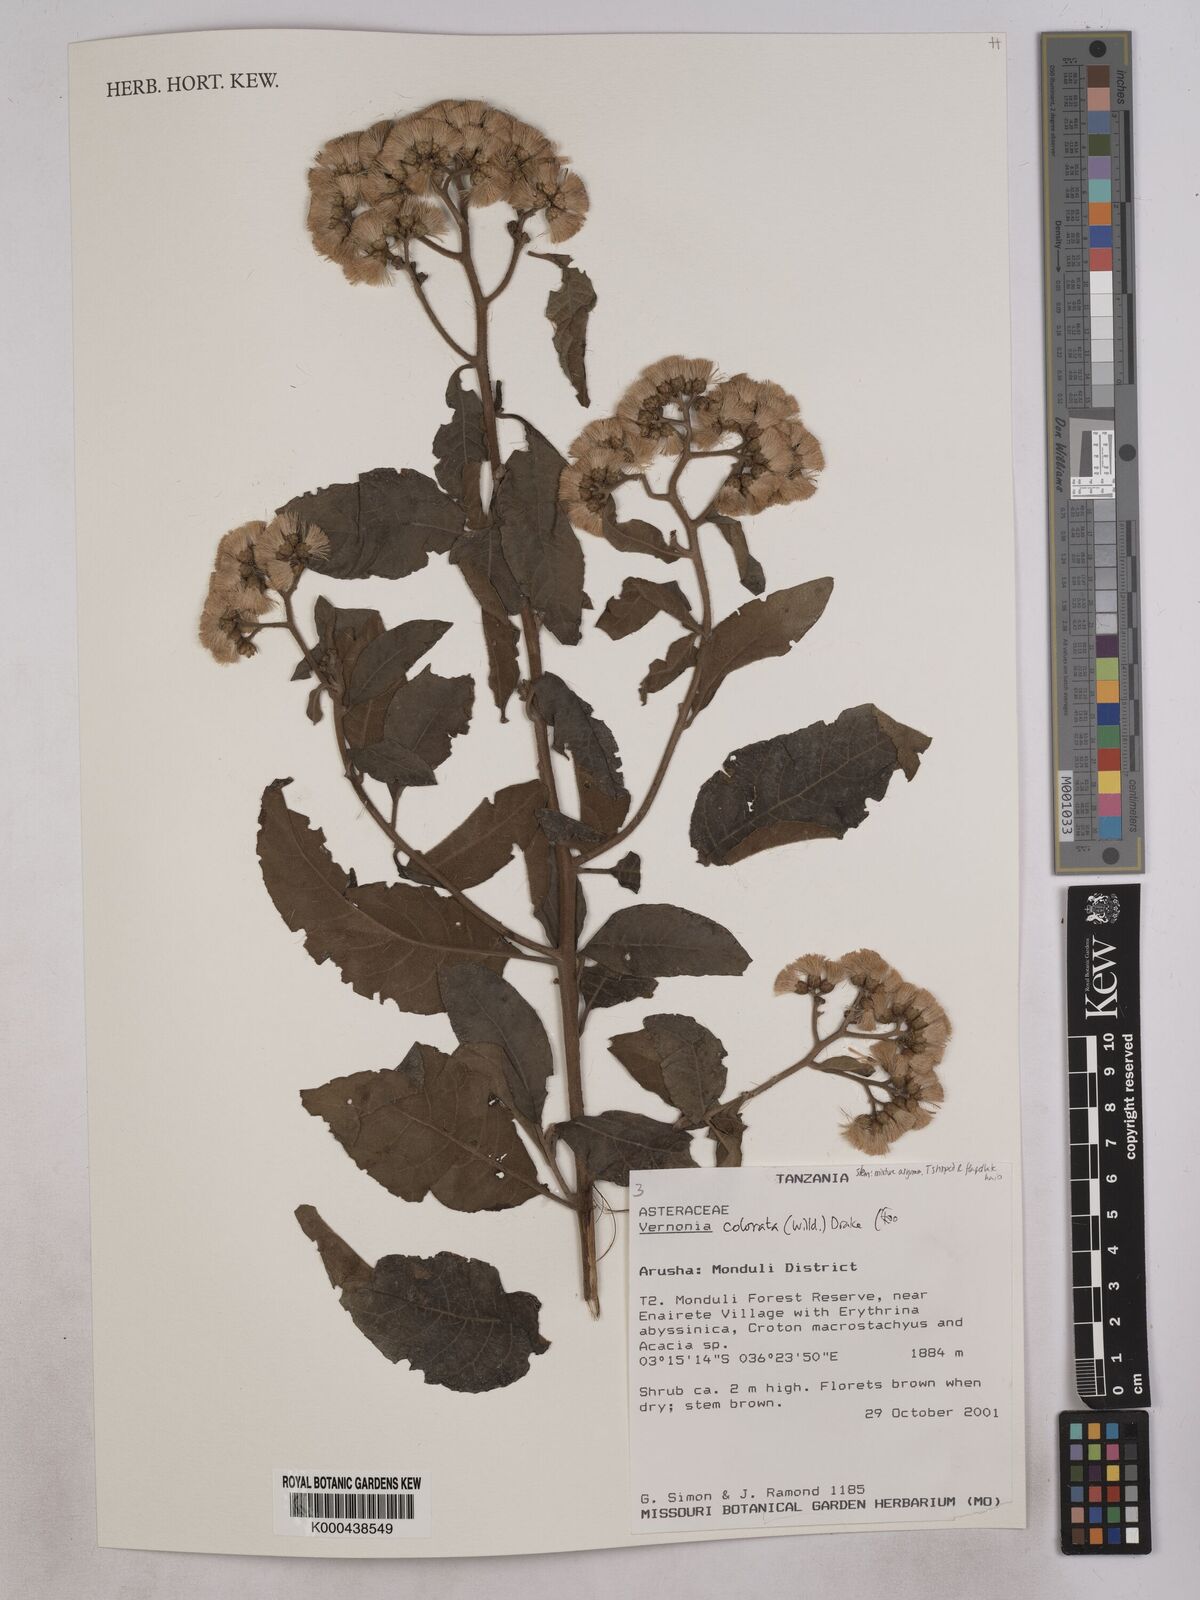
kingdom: Plantae
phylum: Tracheophyta
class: Magnoliopsida
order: Asterales
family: Asteraceae
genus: Vernonia
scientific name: Vernonia colorata
